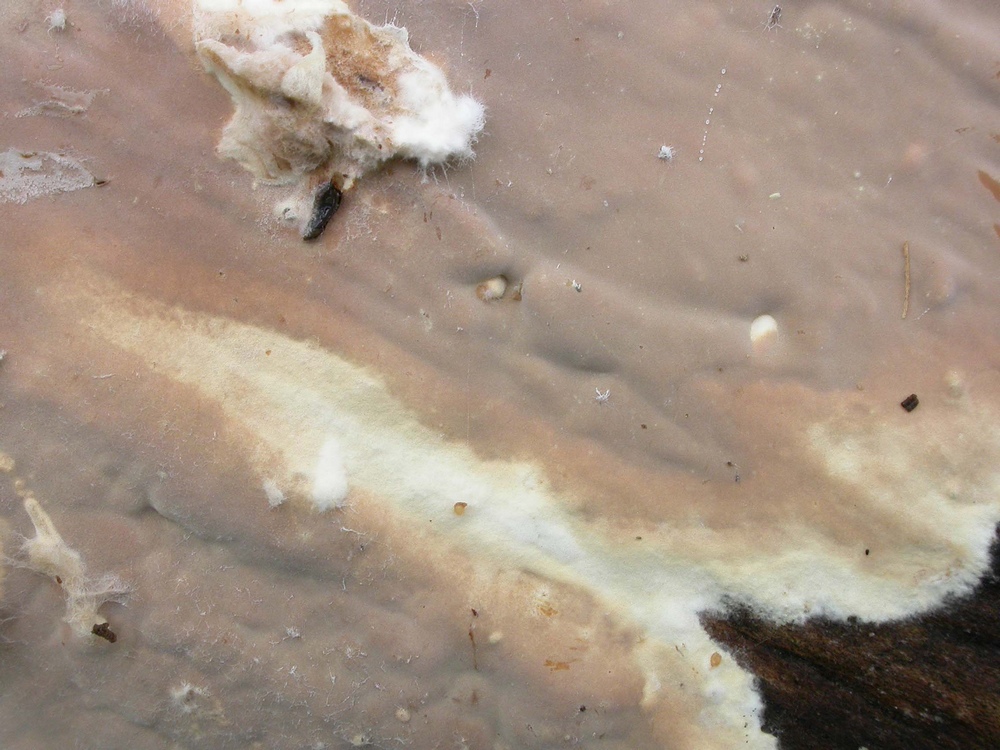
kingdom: Fungi
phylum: Basidiomycota
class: Agaricomycetes
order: Russulales
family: Peniophoraceae
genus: Scytinostroma
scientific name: Scytinostroma hemidichophyticum
